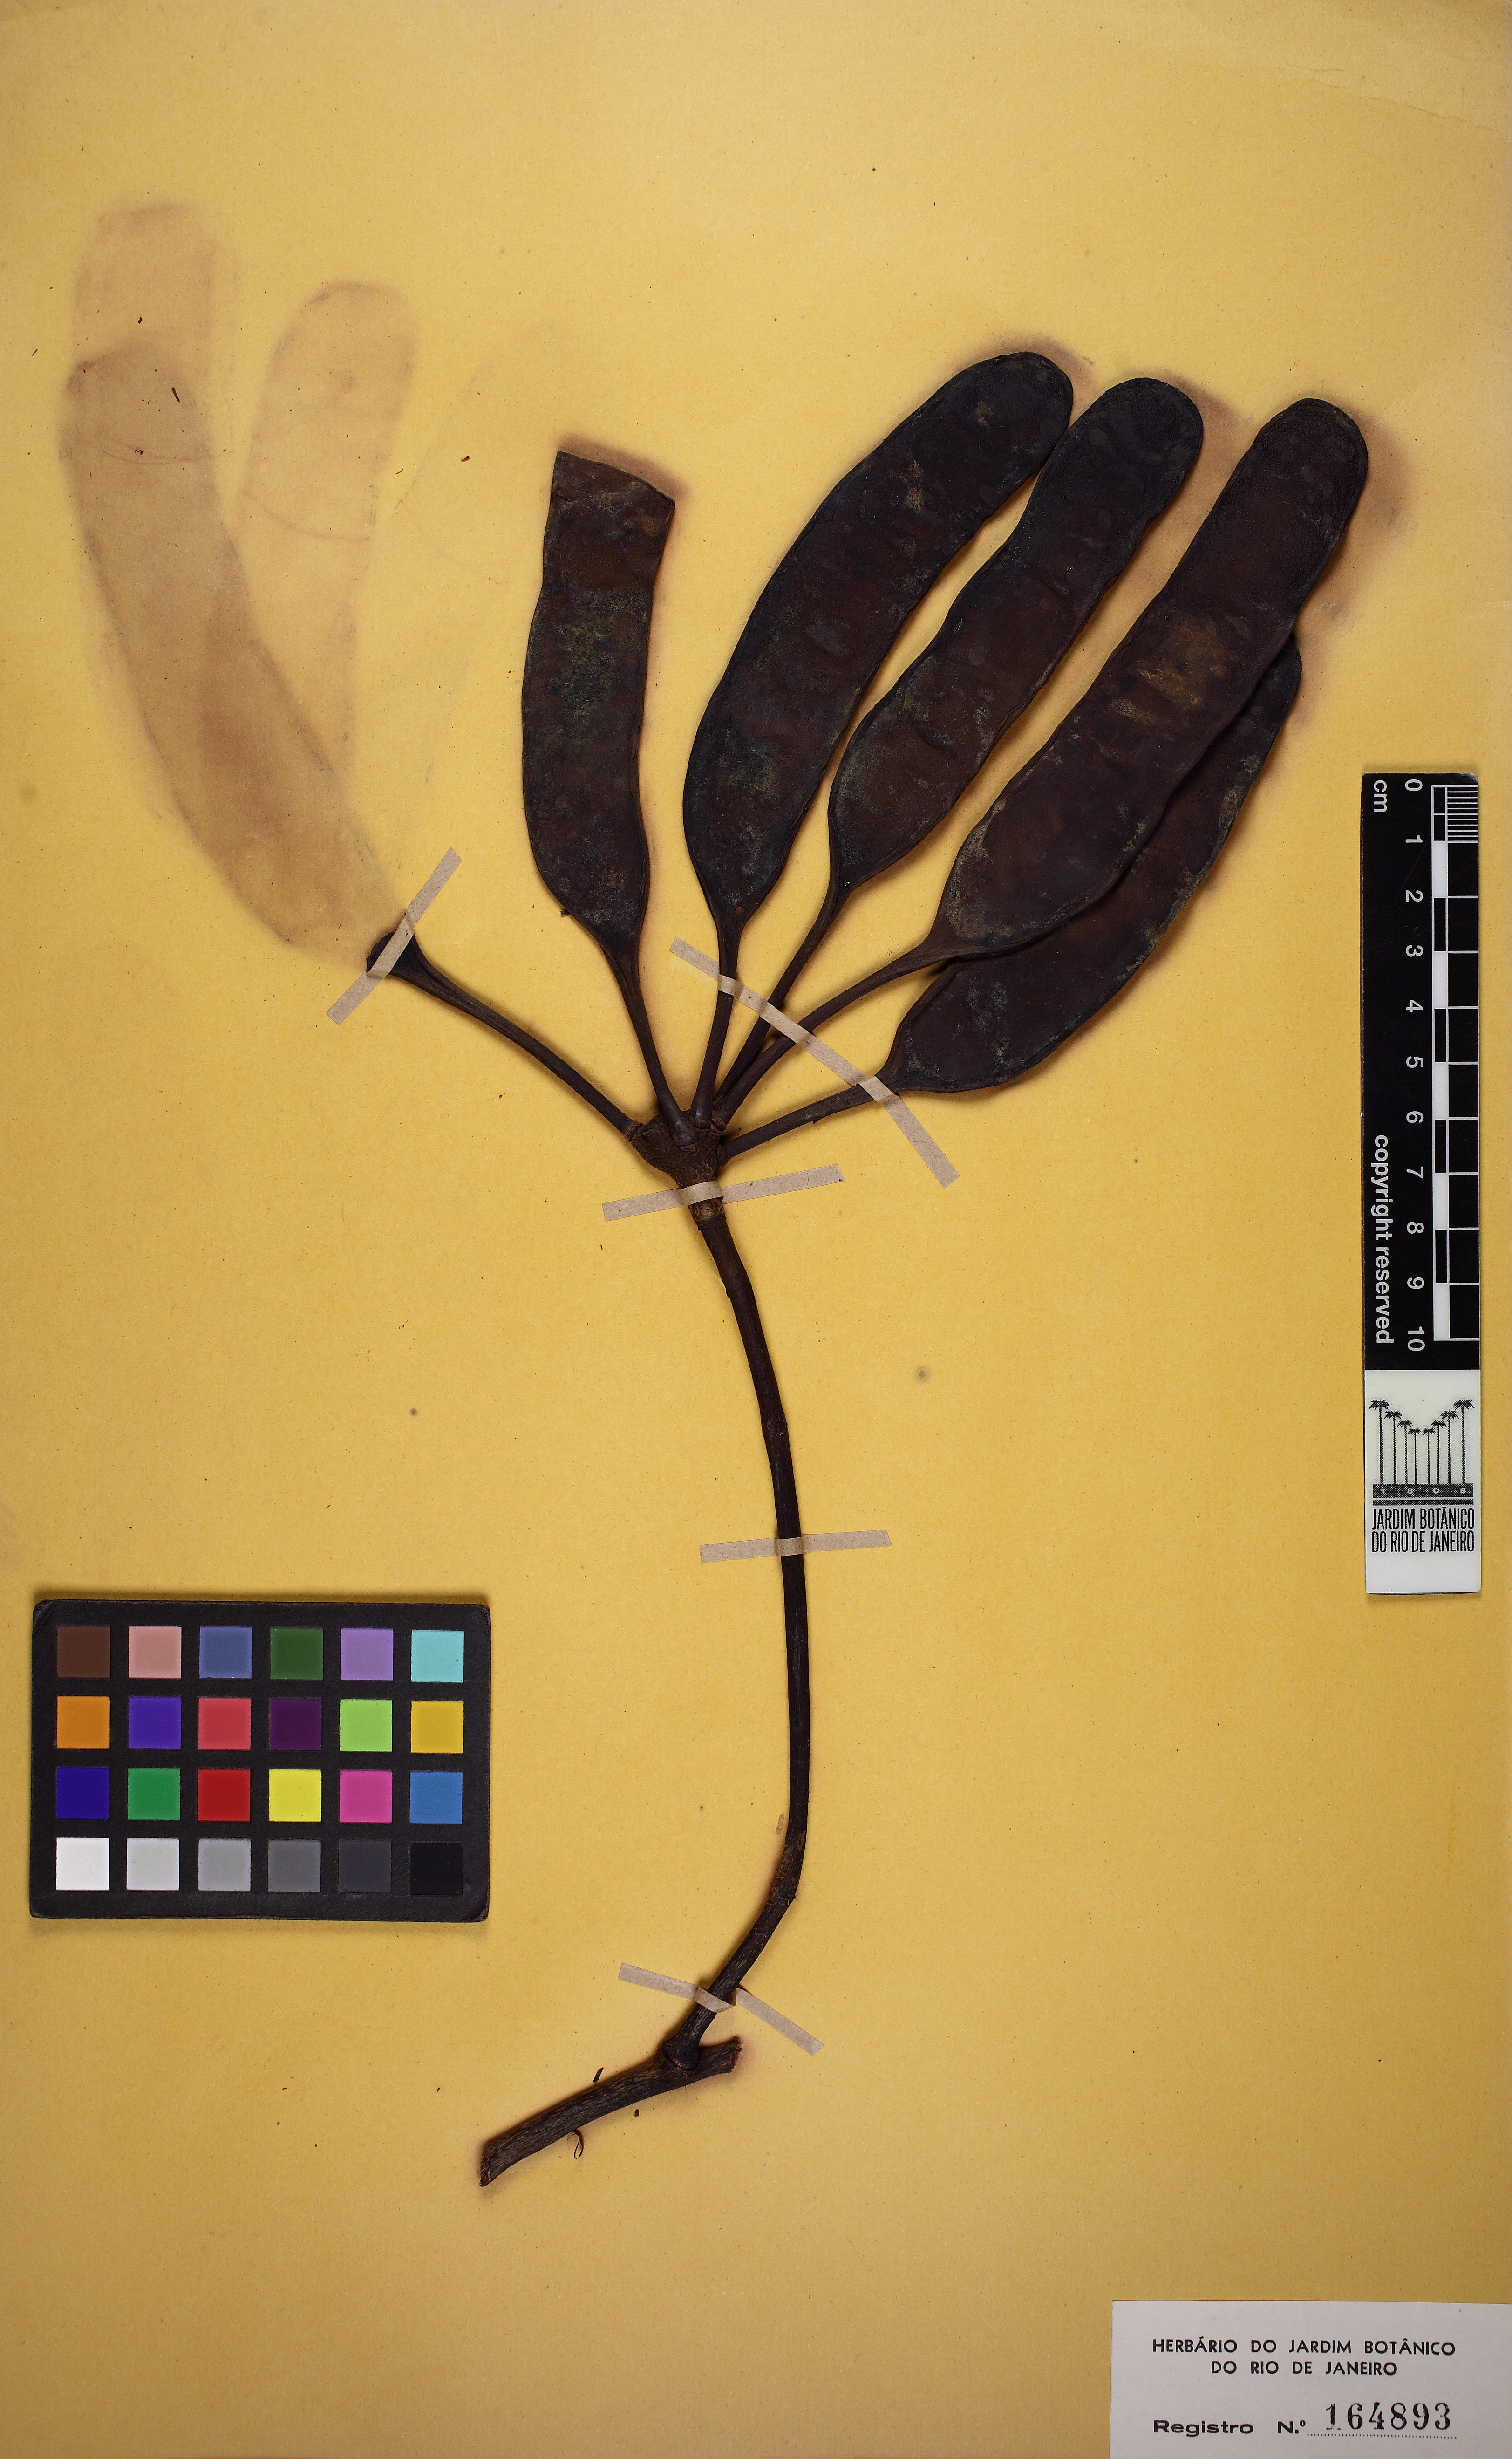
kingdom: Plantae
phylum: Tracheophyta
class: Magnoliopsida
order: Fabales
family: Fabaceae
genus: Parkia
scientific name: Parkia platycephala
